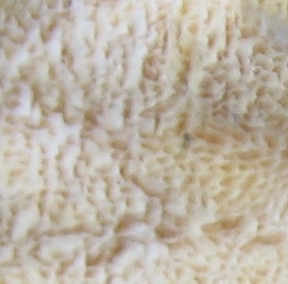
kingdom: Fungi
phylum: Basidiomycota
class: Agaricomycetes
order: Polyporales
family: Polyporaceae
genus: Trametes
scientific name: Trametes versicolor
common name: broget læderporesvamp
